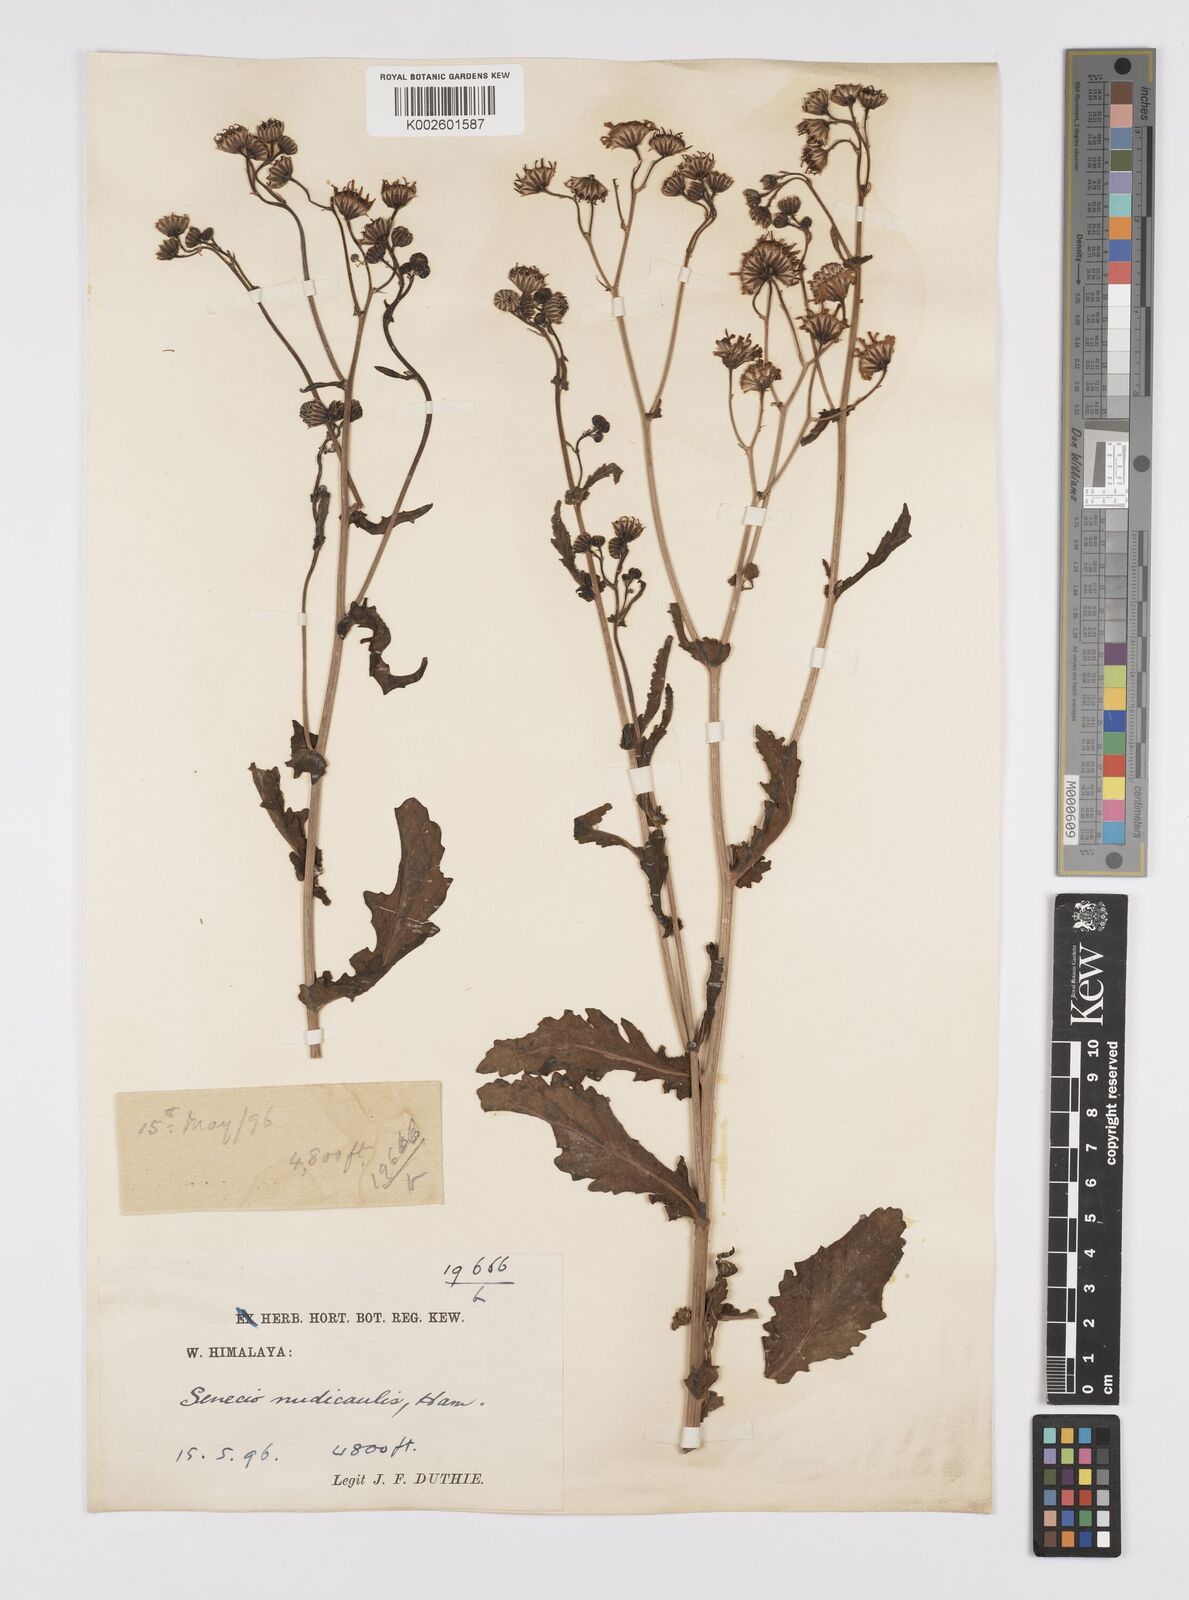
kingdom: Plantae
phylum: Tracheophyta
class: Magnoliopsida
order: Asterales
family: Asteraceae
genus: Jacobaea
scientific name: Jacobaea nudicaulis
